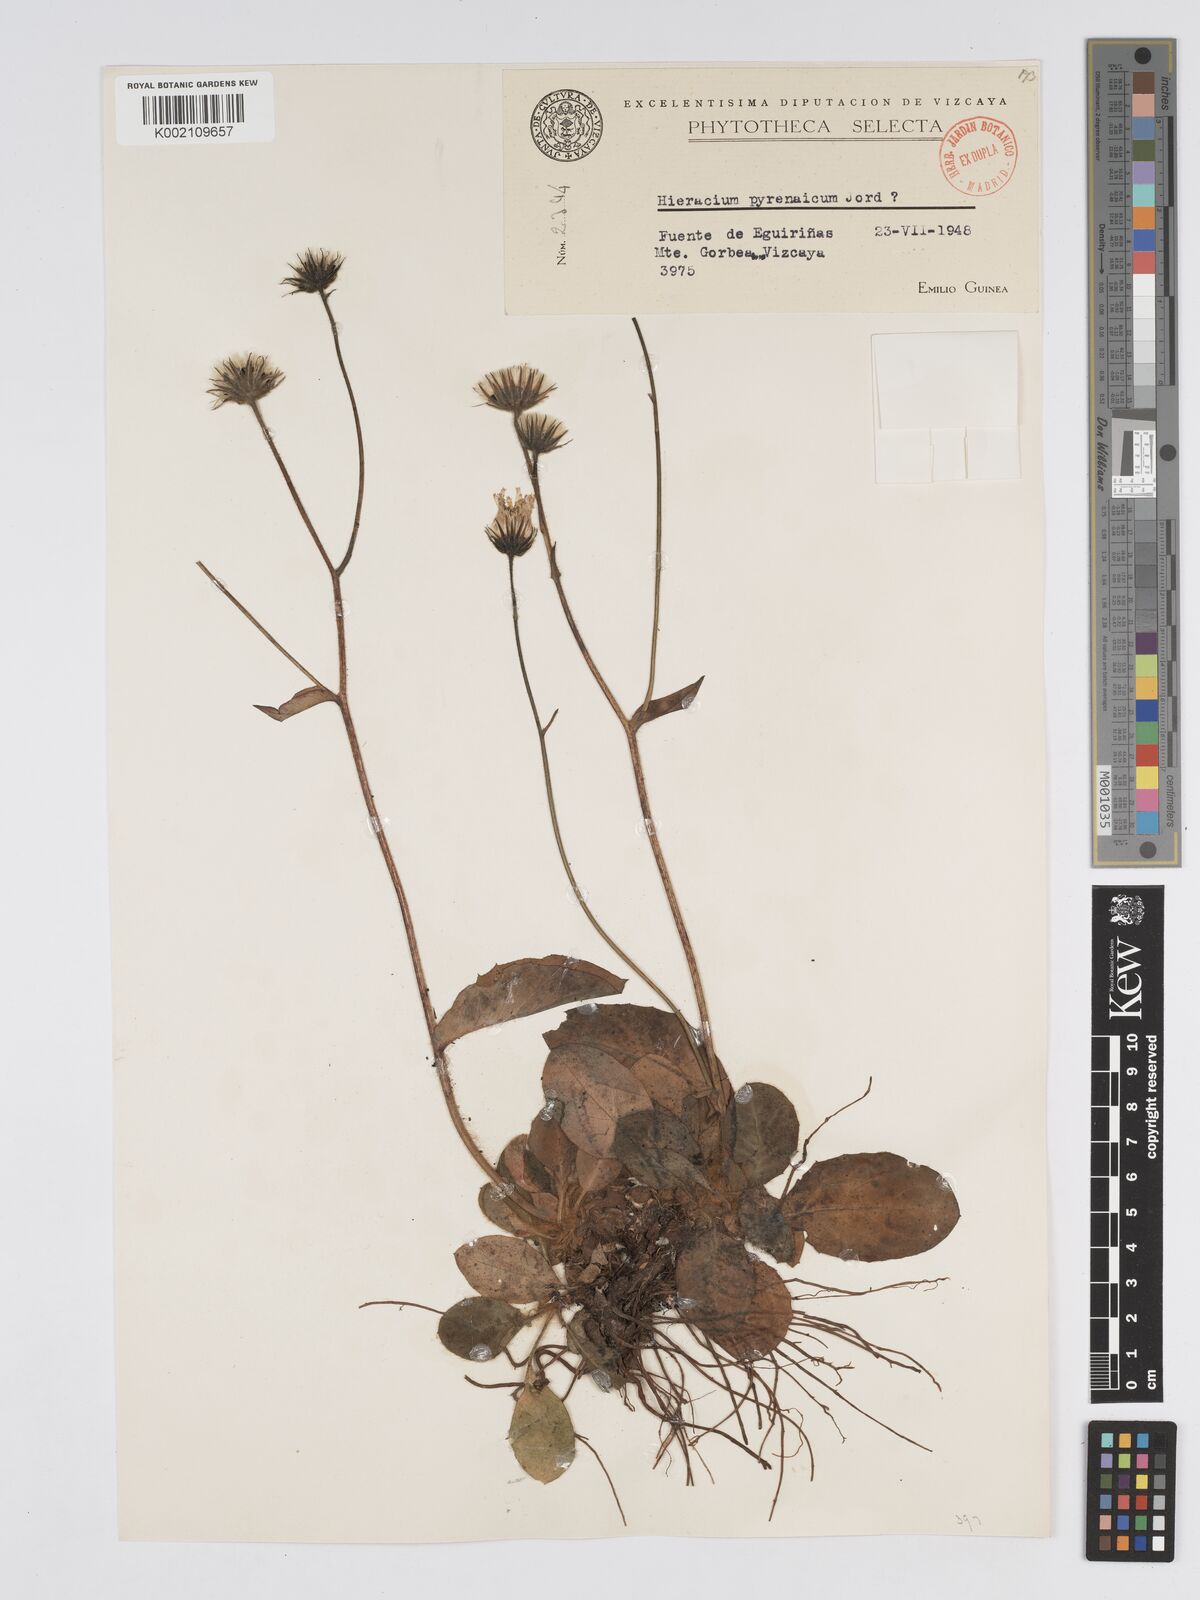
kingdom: Plantae
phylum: Tracheophyta
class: Magnoliopsida
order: Asterales
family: Asteraceae
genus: Hieracium
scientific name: Hieracium nobile
